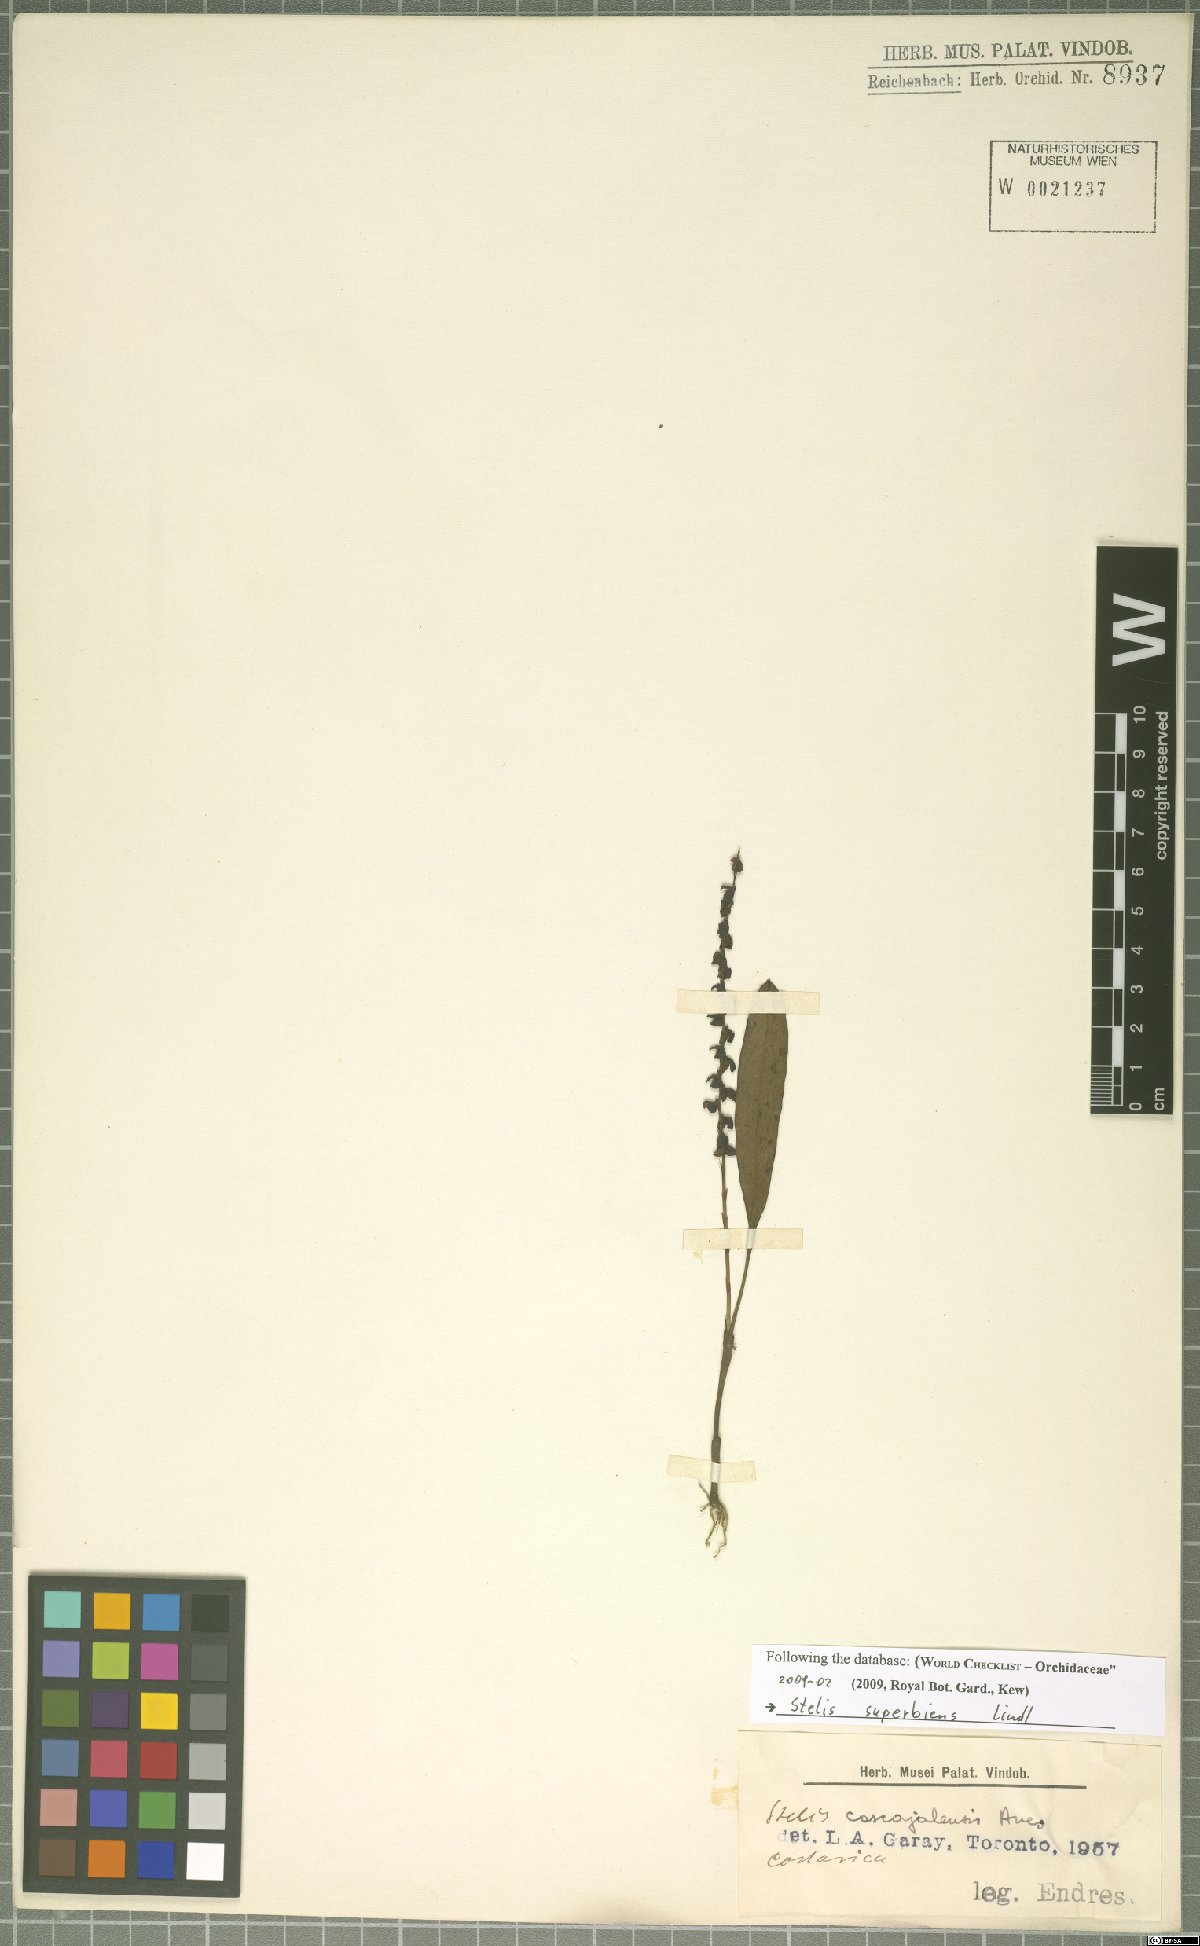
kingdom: Plantae
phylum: Tracheophyta
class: Liliopsida
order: Asparagales
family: Orchidaceae
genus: Stelis
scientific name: Stelis superbiens
